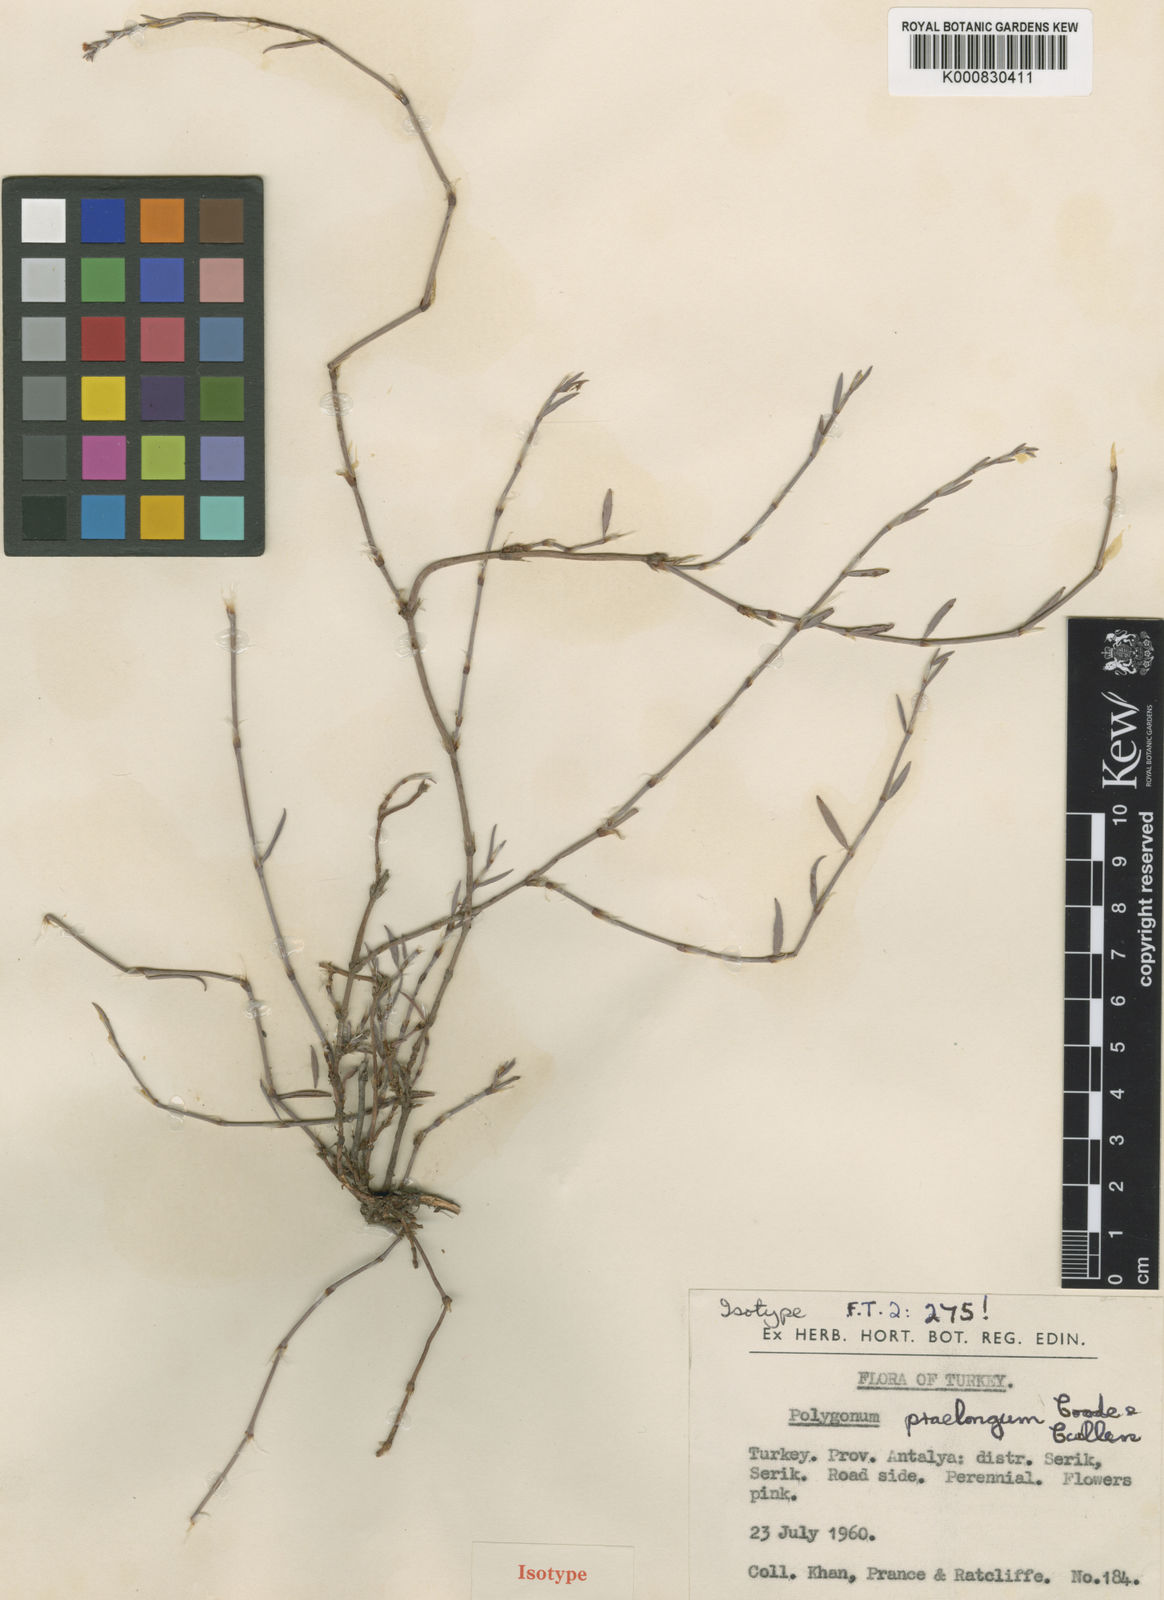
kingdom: Plantae
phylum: Tracheophyta
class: Magnoliopsida
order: Caryophyllales
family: Polygonaceae
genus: Polygonum
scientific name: Polygonum praelongum
